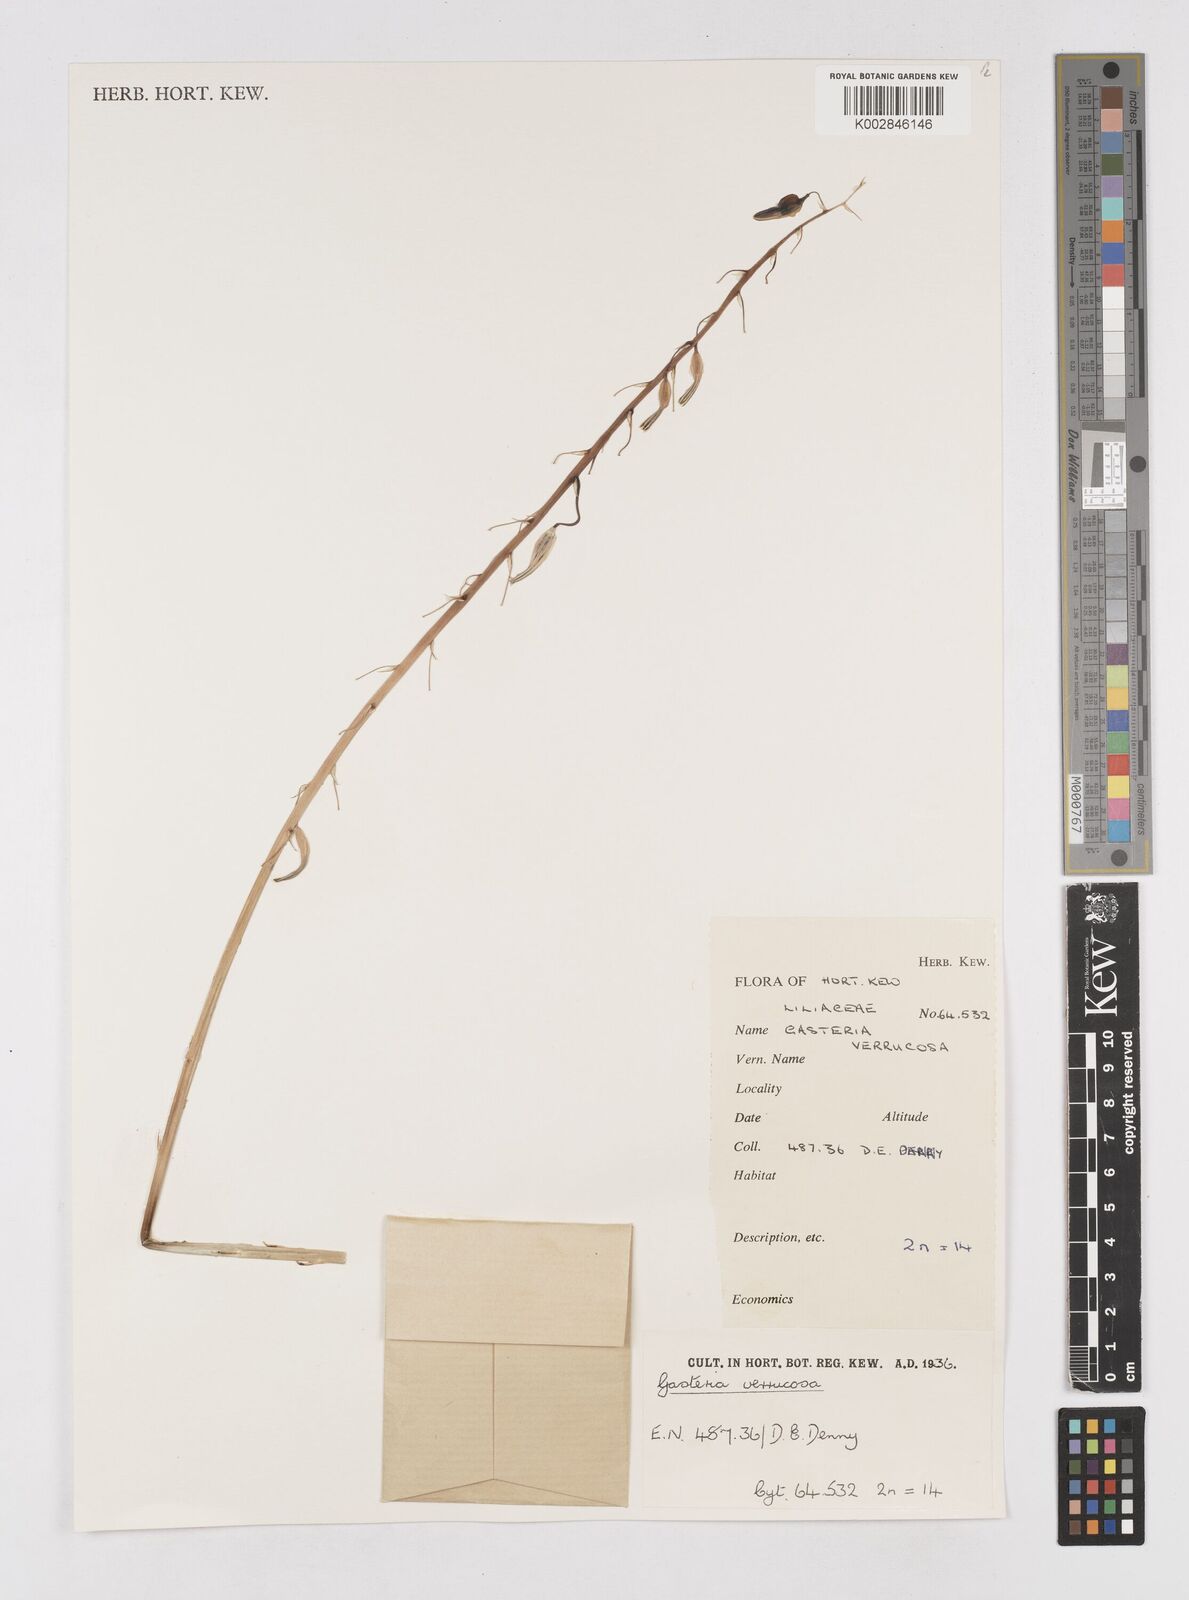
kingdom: Plantae
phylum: Tracheophyta
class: Liliopsida
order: Asparagales
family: Asphodelaceae
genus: Gasteria
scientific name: Gasteria
